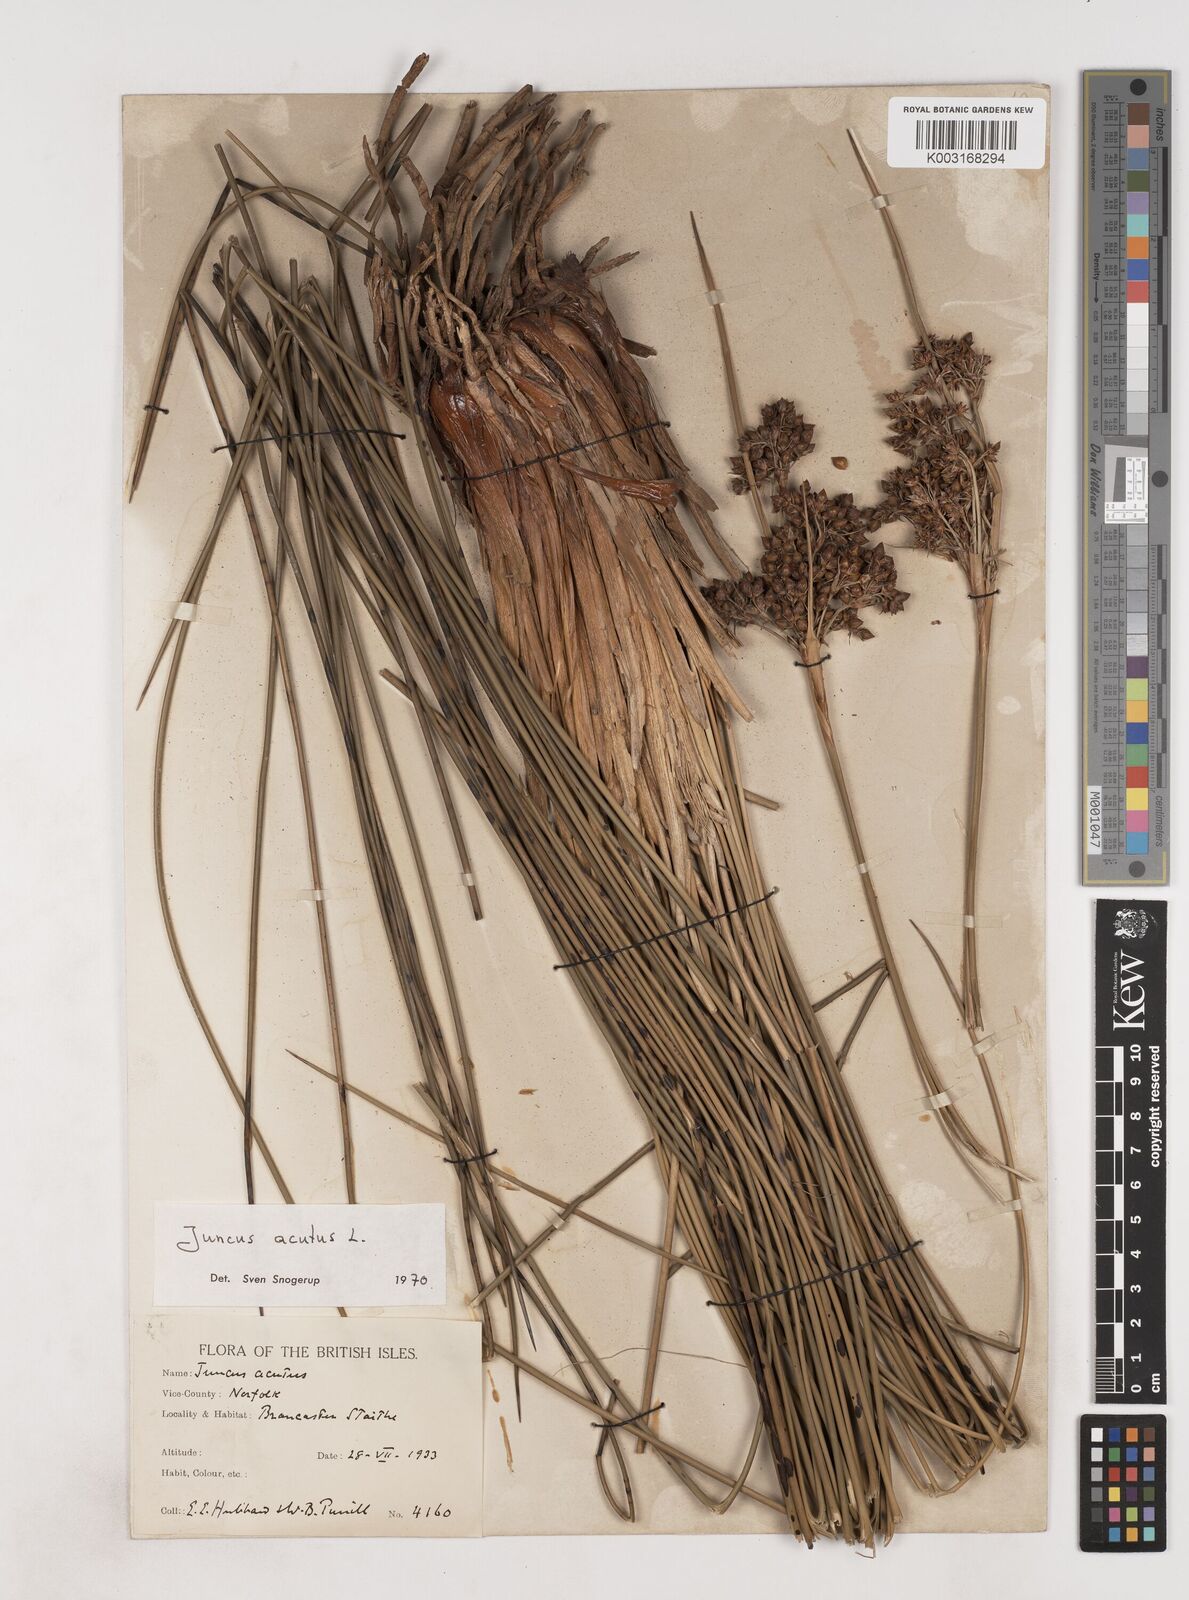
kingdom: Plantae
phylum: Tracheophyta
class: Liliopsida
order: Poales
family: Juncaceae
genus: Juncus
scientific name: Juncus acutus
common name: Sharp rush
